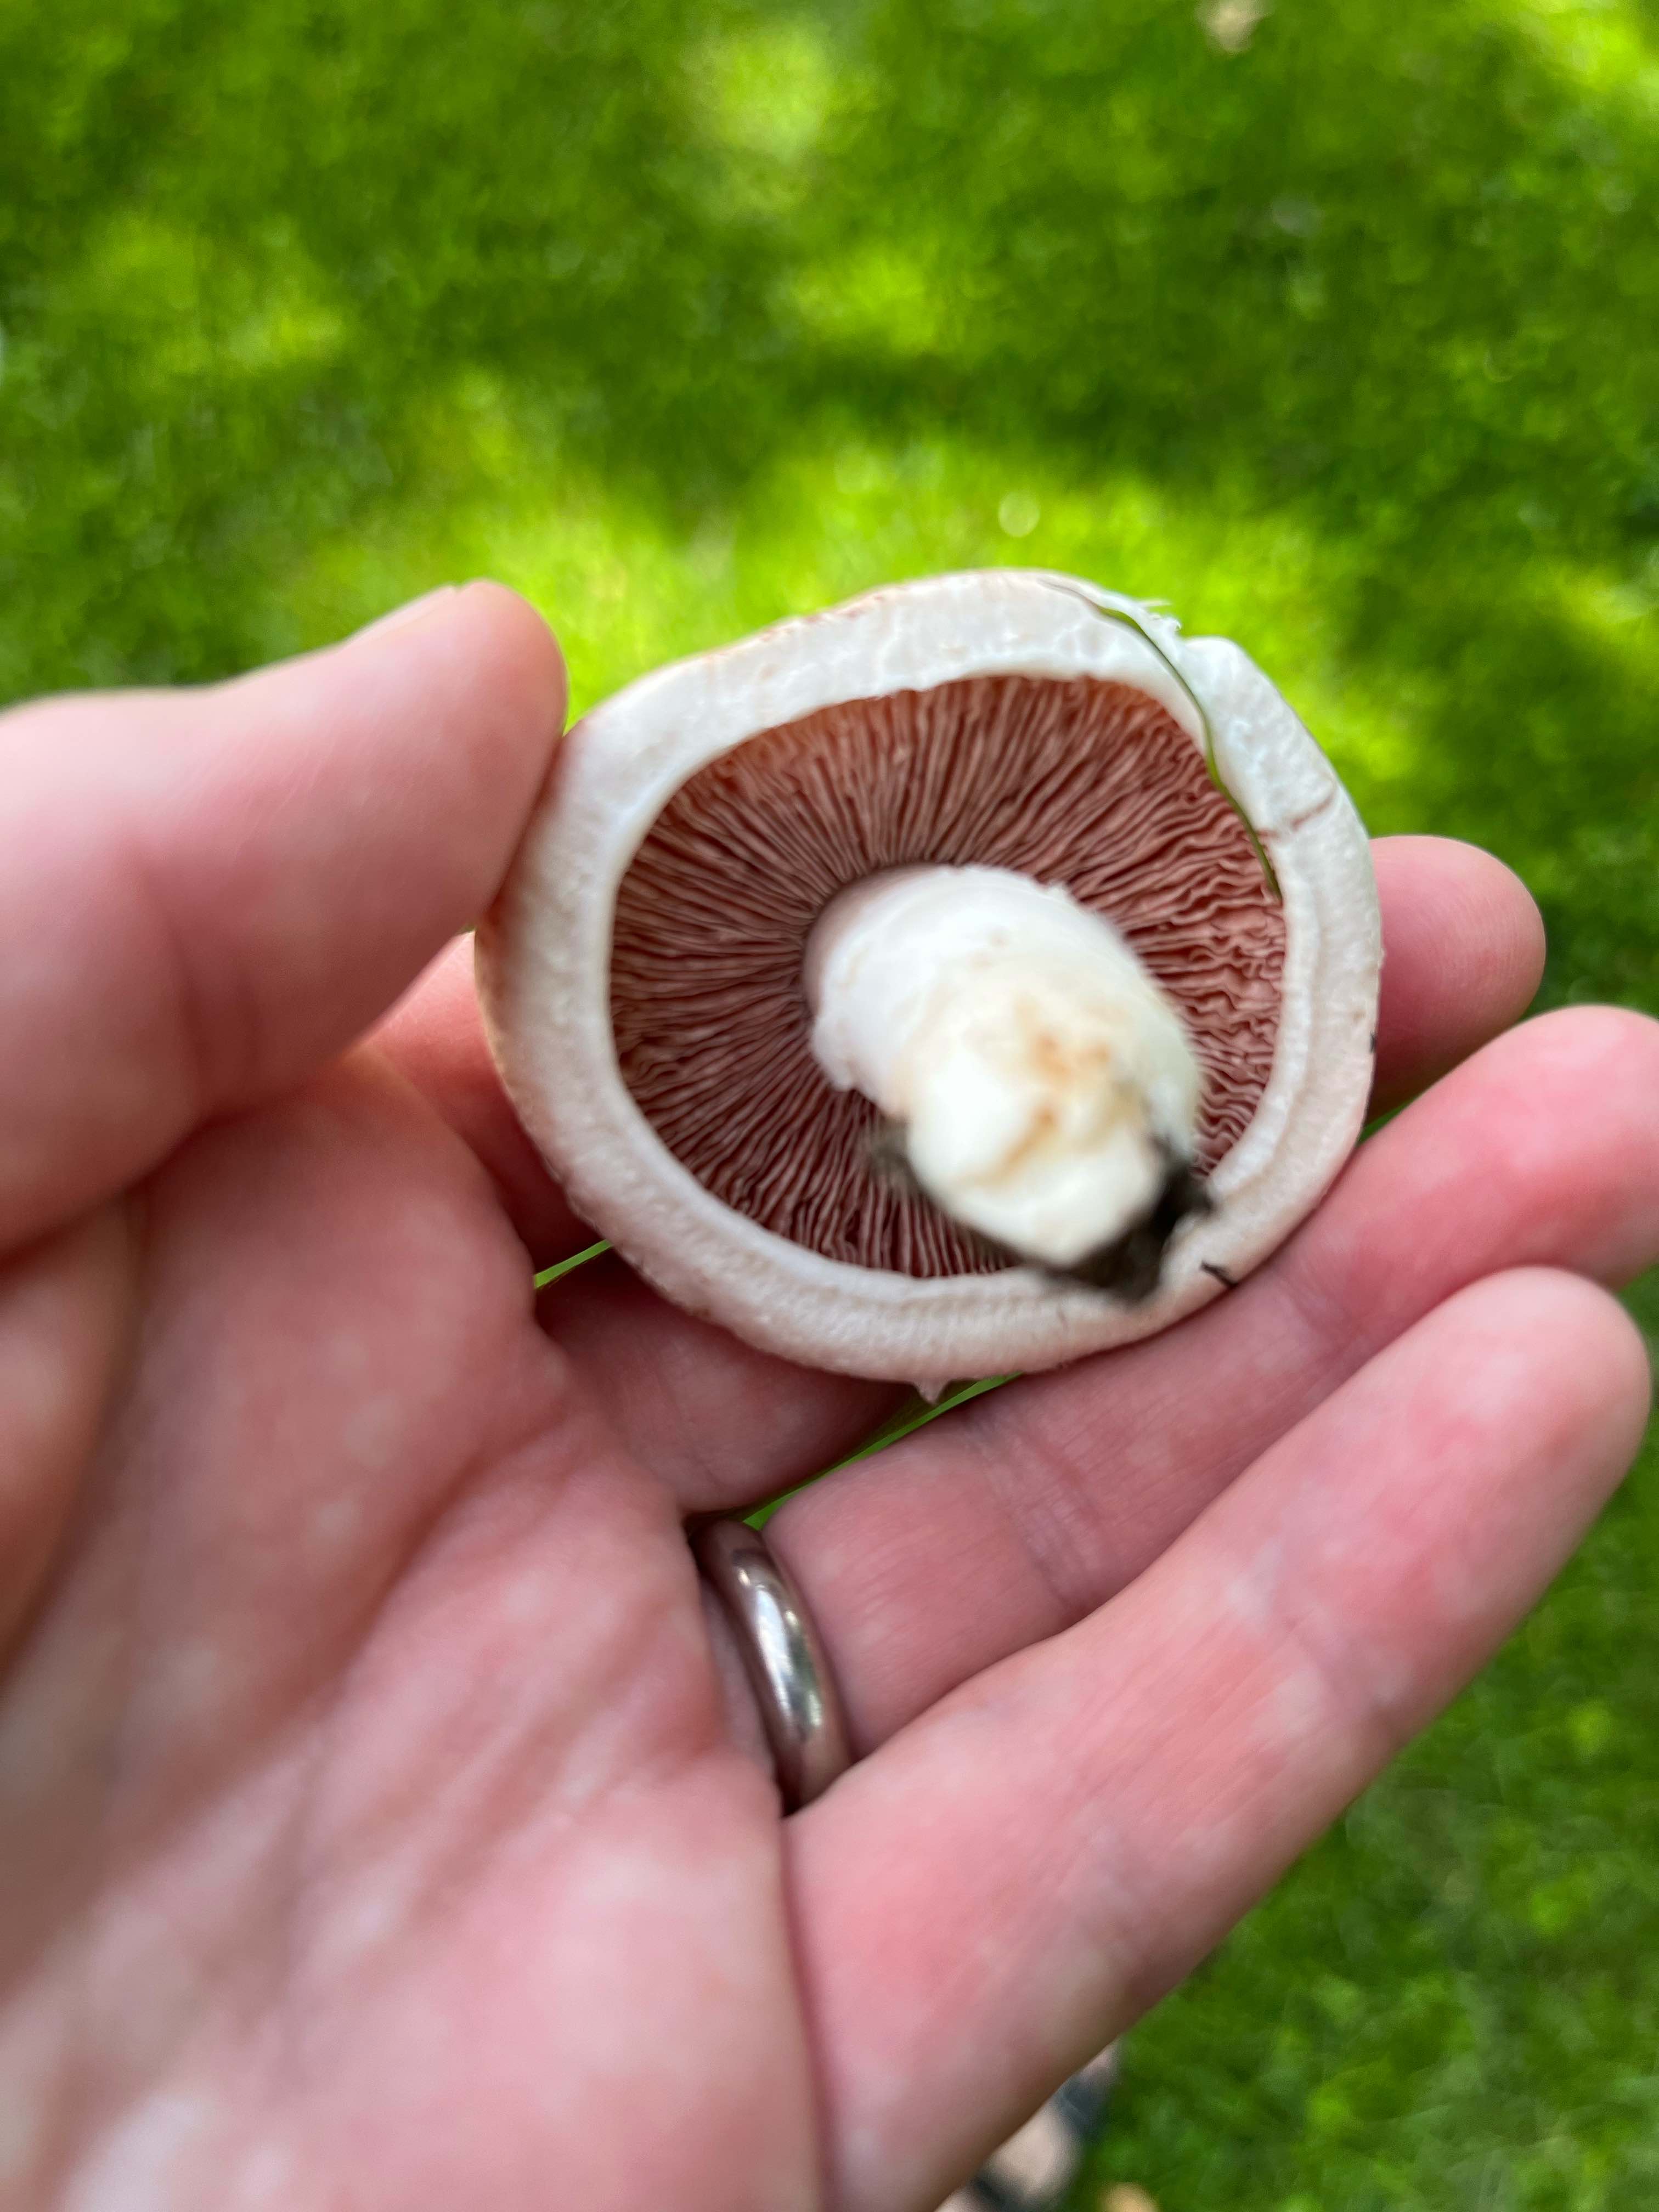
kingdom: Fungi
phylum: Basidiomycota
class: Agaricomycetes
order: Agaricales
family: Agaricaceae
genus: Agaricus
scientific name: Agaricus campestris
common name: mark-champignon
